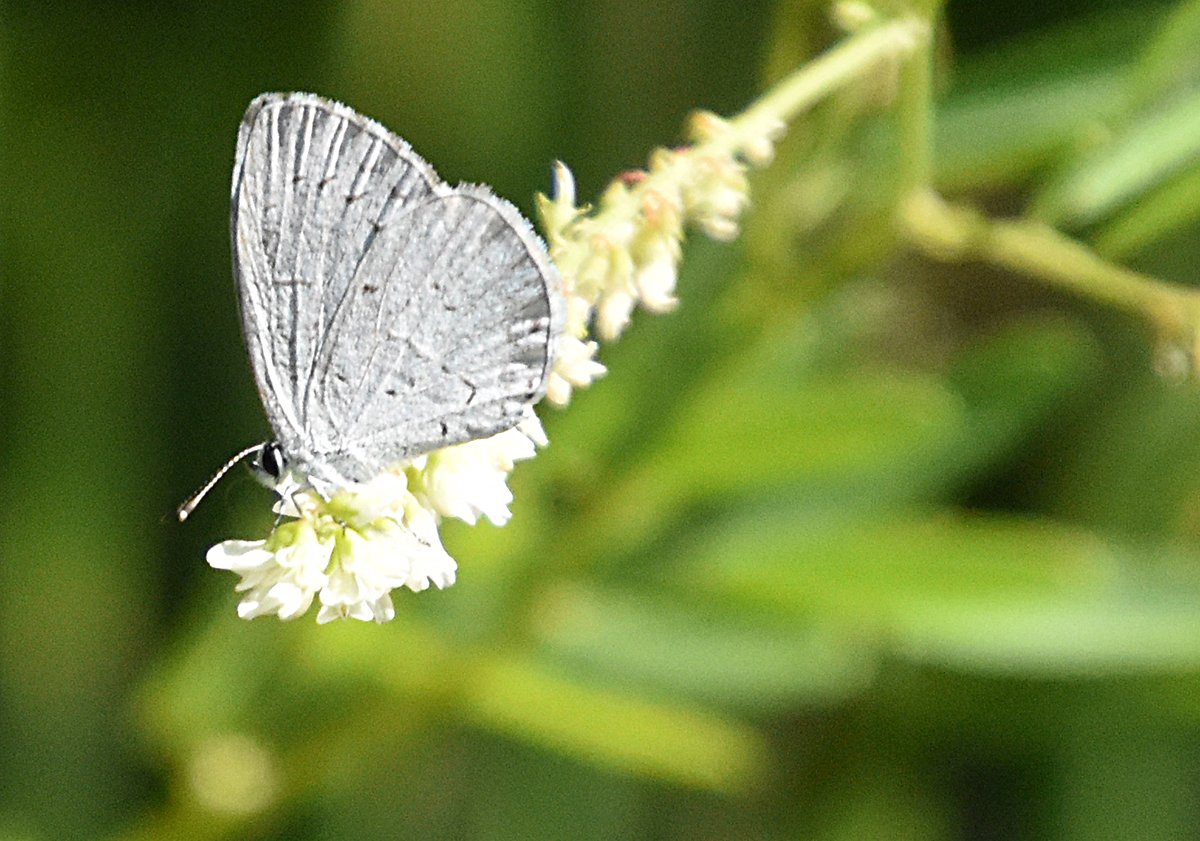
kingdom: Animalia
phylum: Arthropoda
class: Insecta
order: Lepidoptera
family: Lycaenidae
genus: Cyaniris
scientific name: Cyaniris neglecta
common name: Summer Azure
